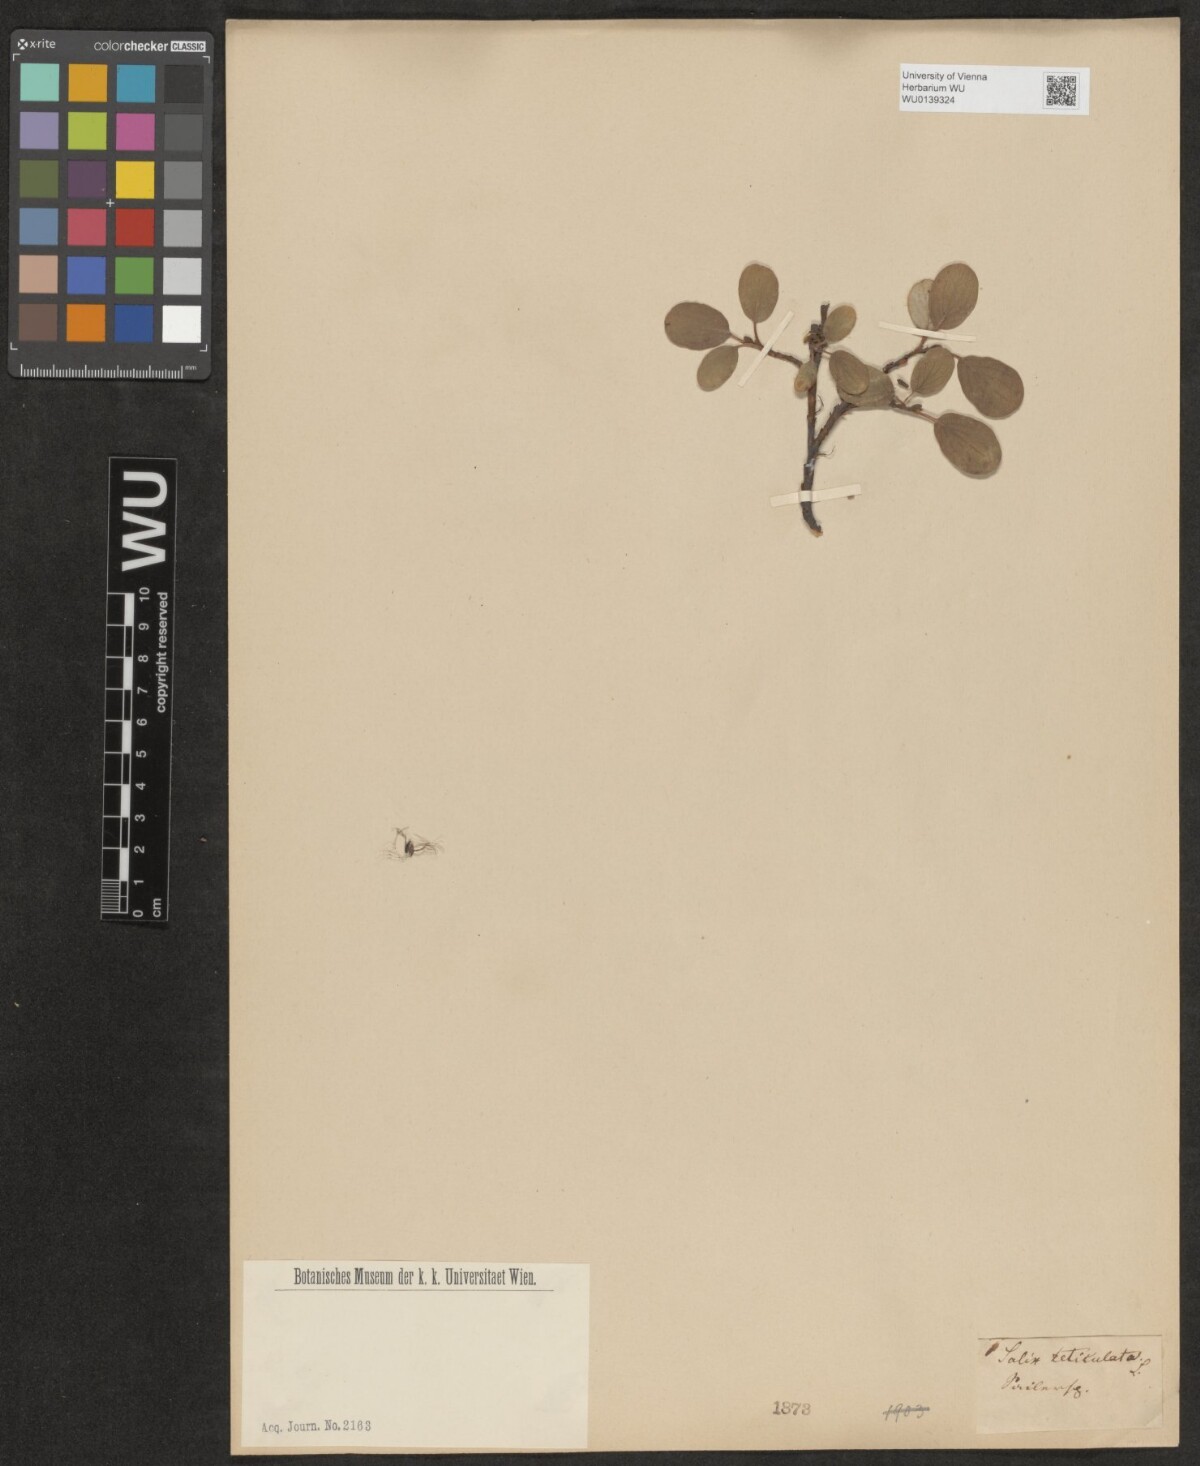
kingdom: Plantae
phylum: Tracheophyta
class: Magnoliopsida
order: Malpighiales
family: Salicaceae
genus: Salix
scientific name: Salix reticulata
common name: Net-leaved willow
